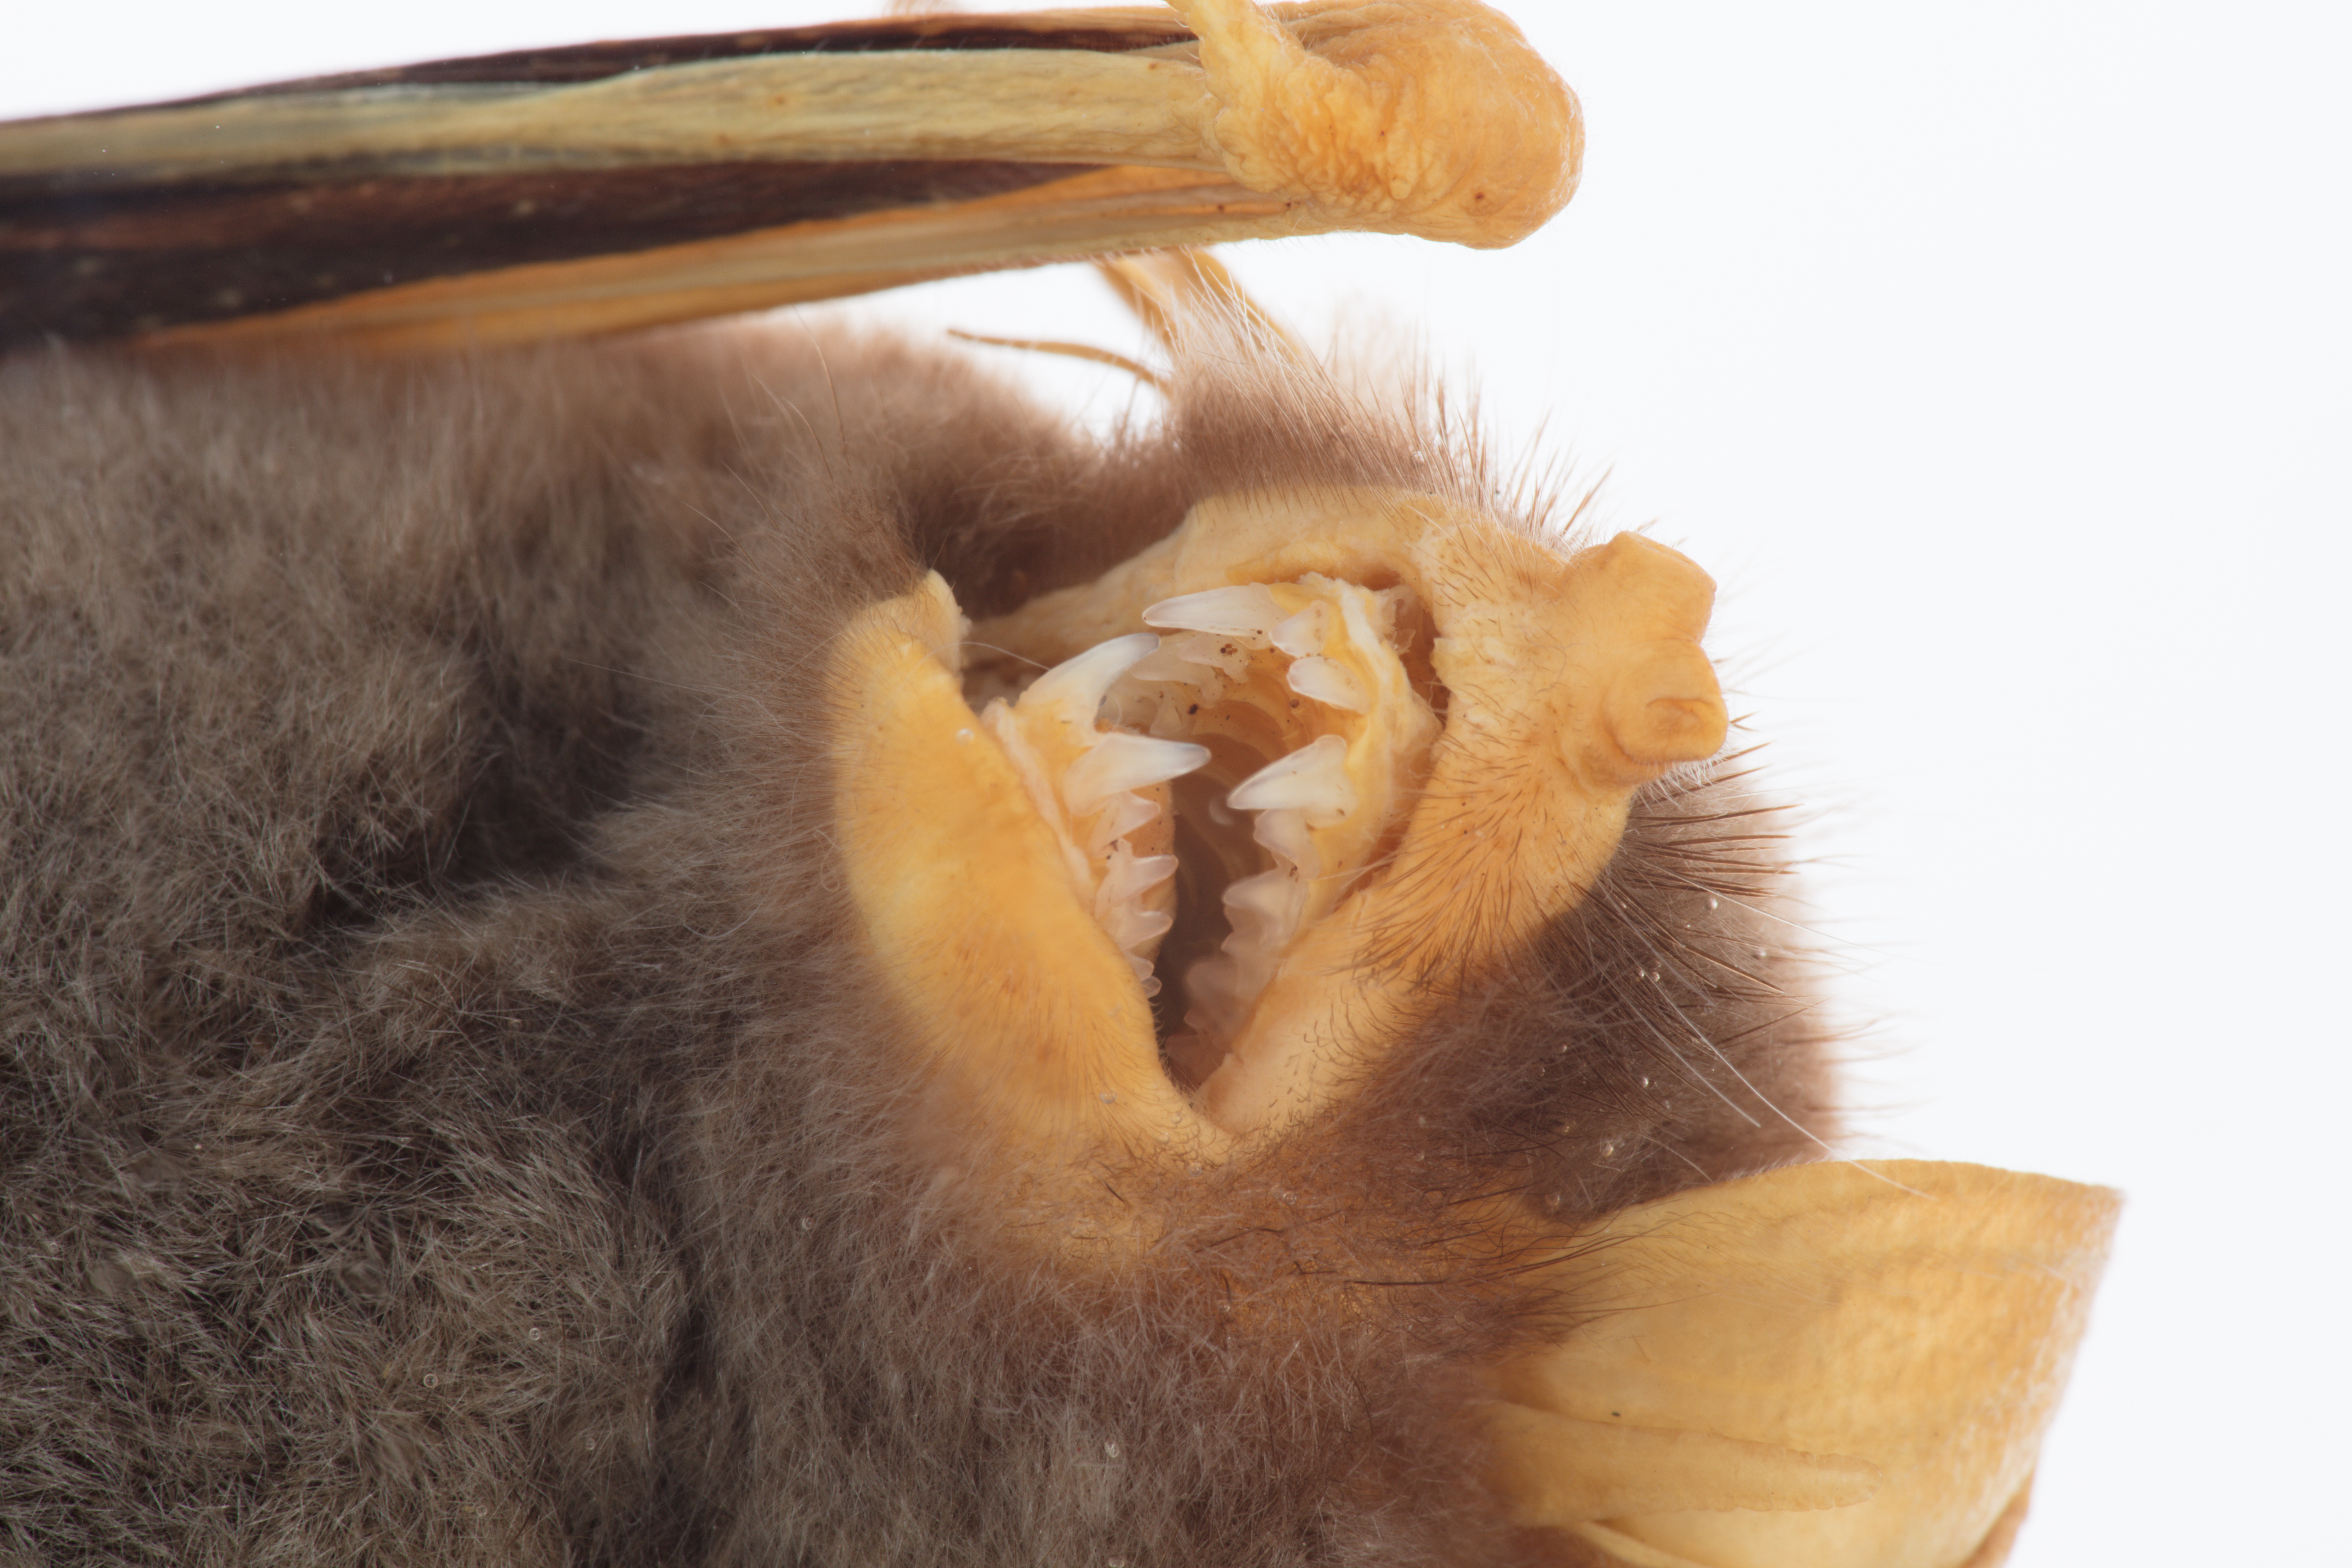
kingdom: Animalia
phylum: Chordata
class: Mammalia
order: Chiroptera
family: Mystacinidae
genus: Mystacina
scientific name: Mystacina tuberculata
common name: New zealand lesser short-tailed bat
